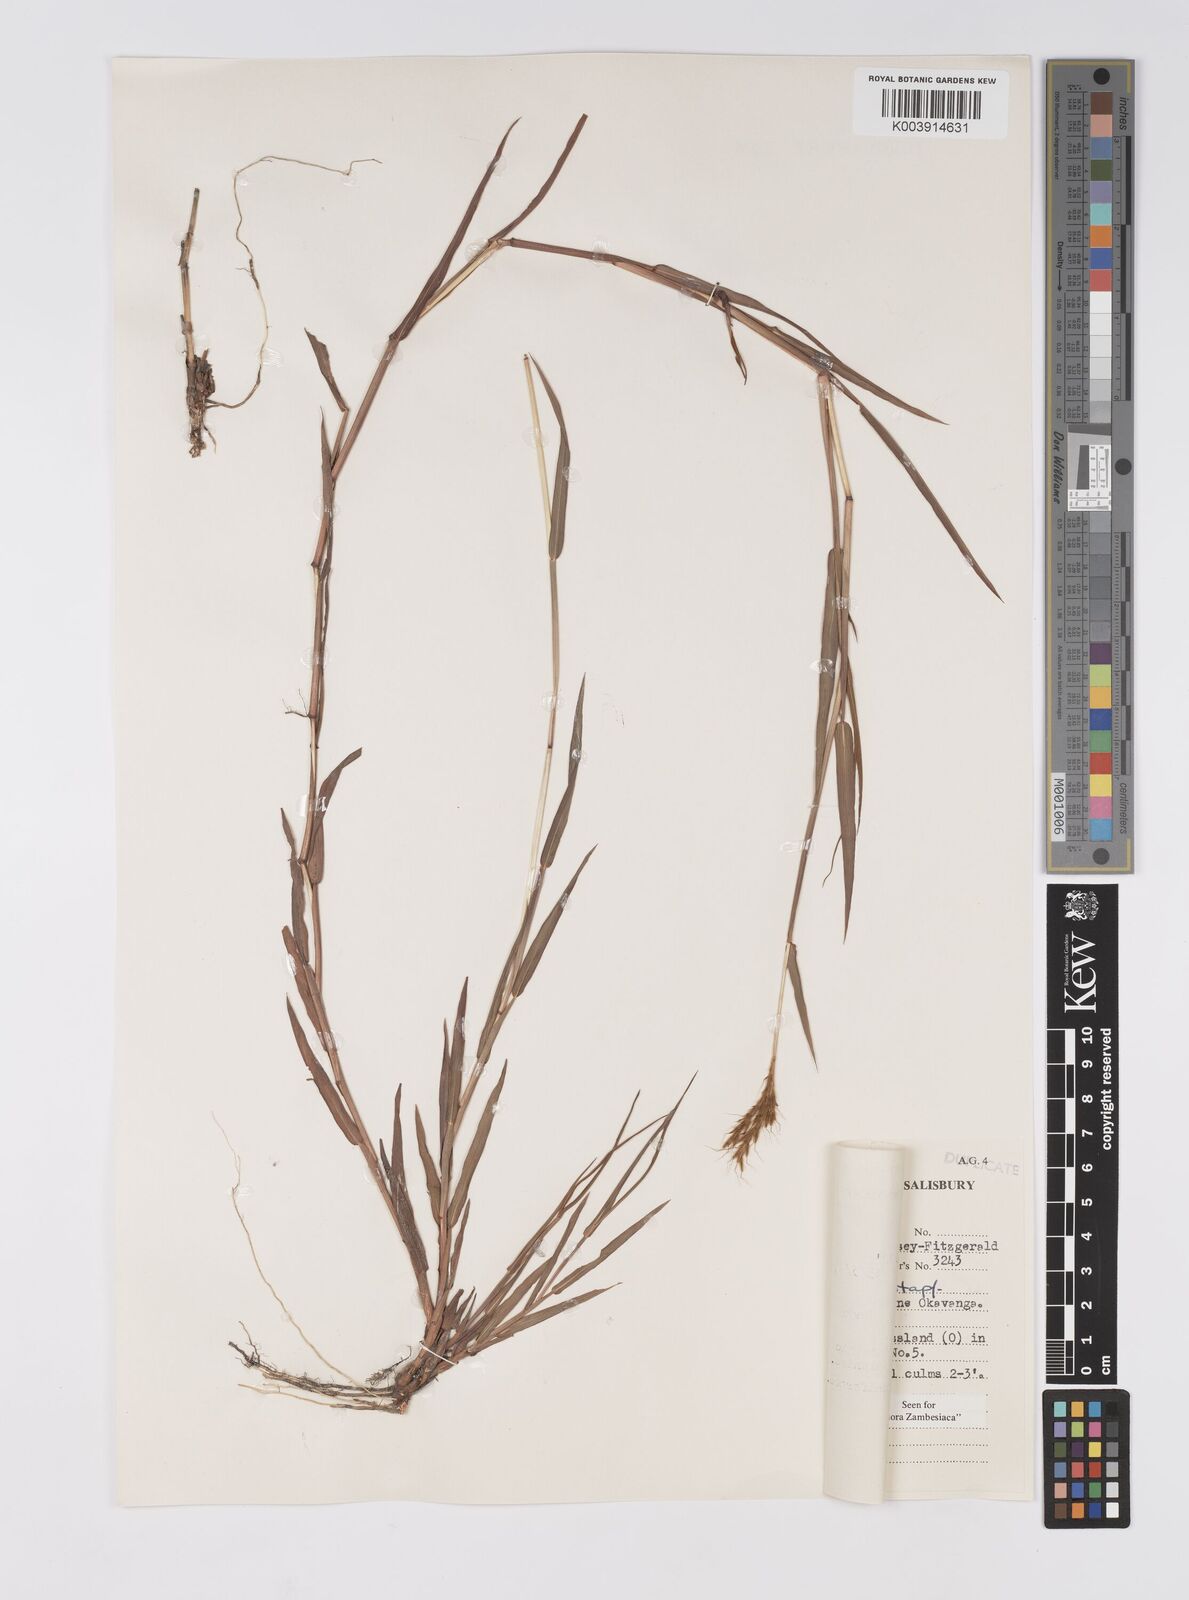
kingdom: Plantae
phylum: Tracheophyta
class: Liliopsida
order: Poales
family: Poaceae
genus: Eulalia
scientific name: Eulalia aurea
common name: Silky browntop
